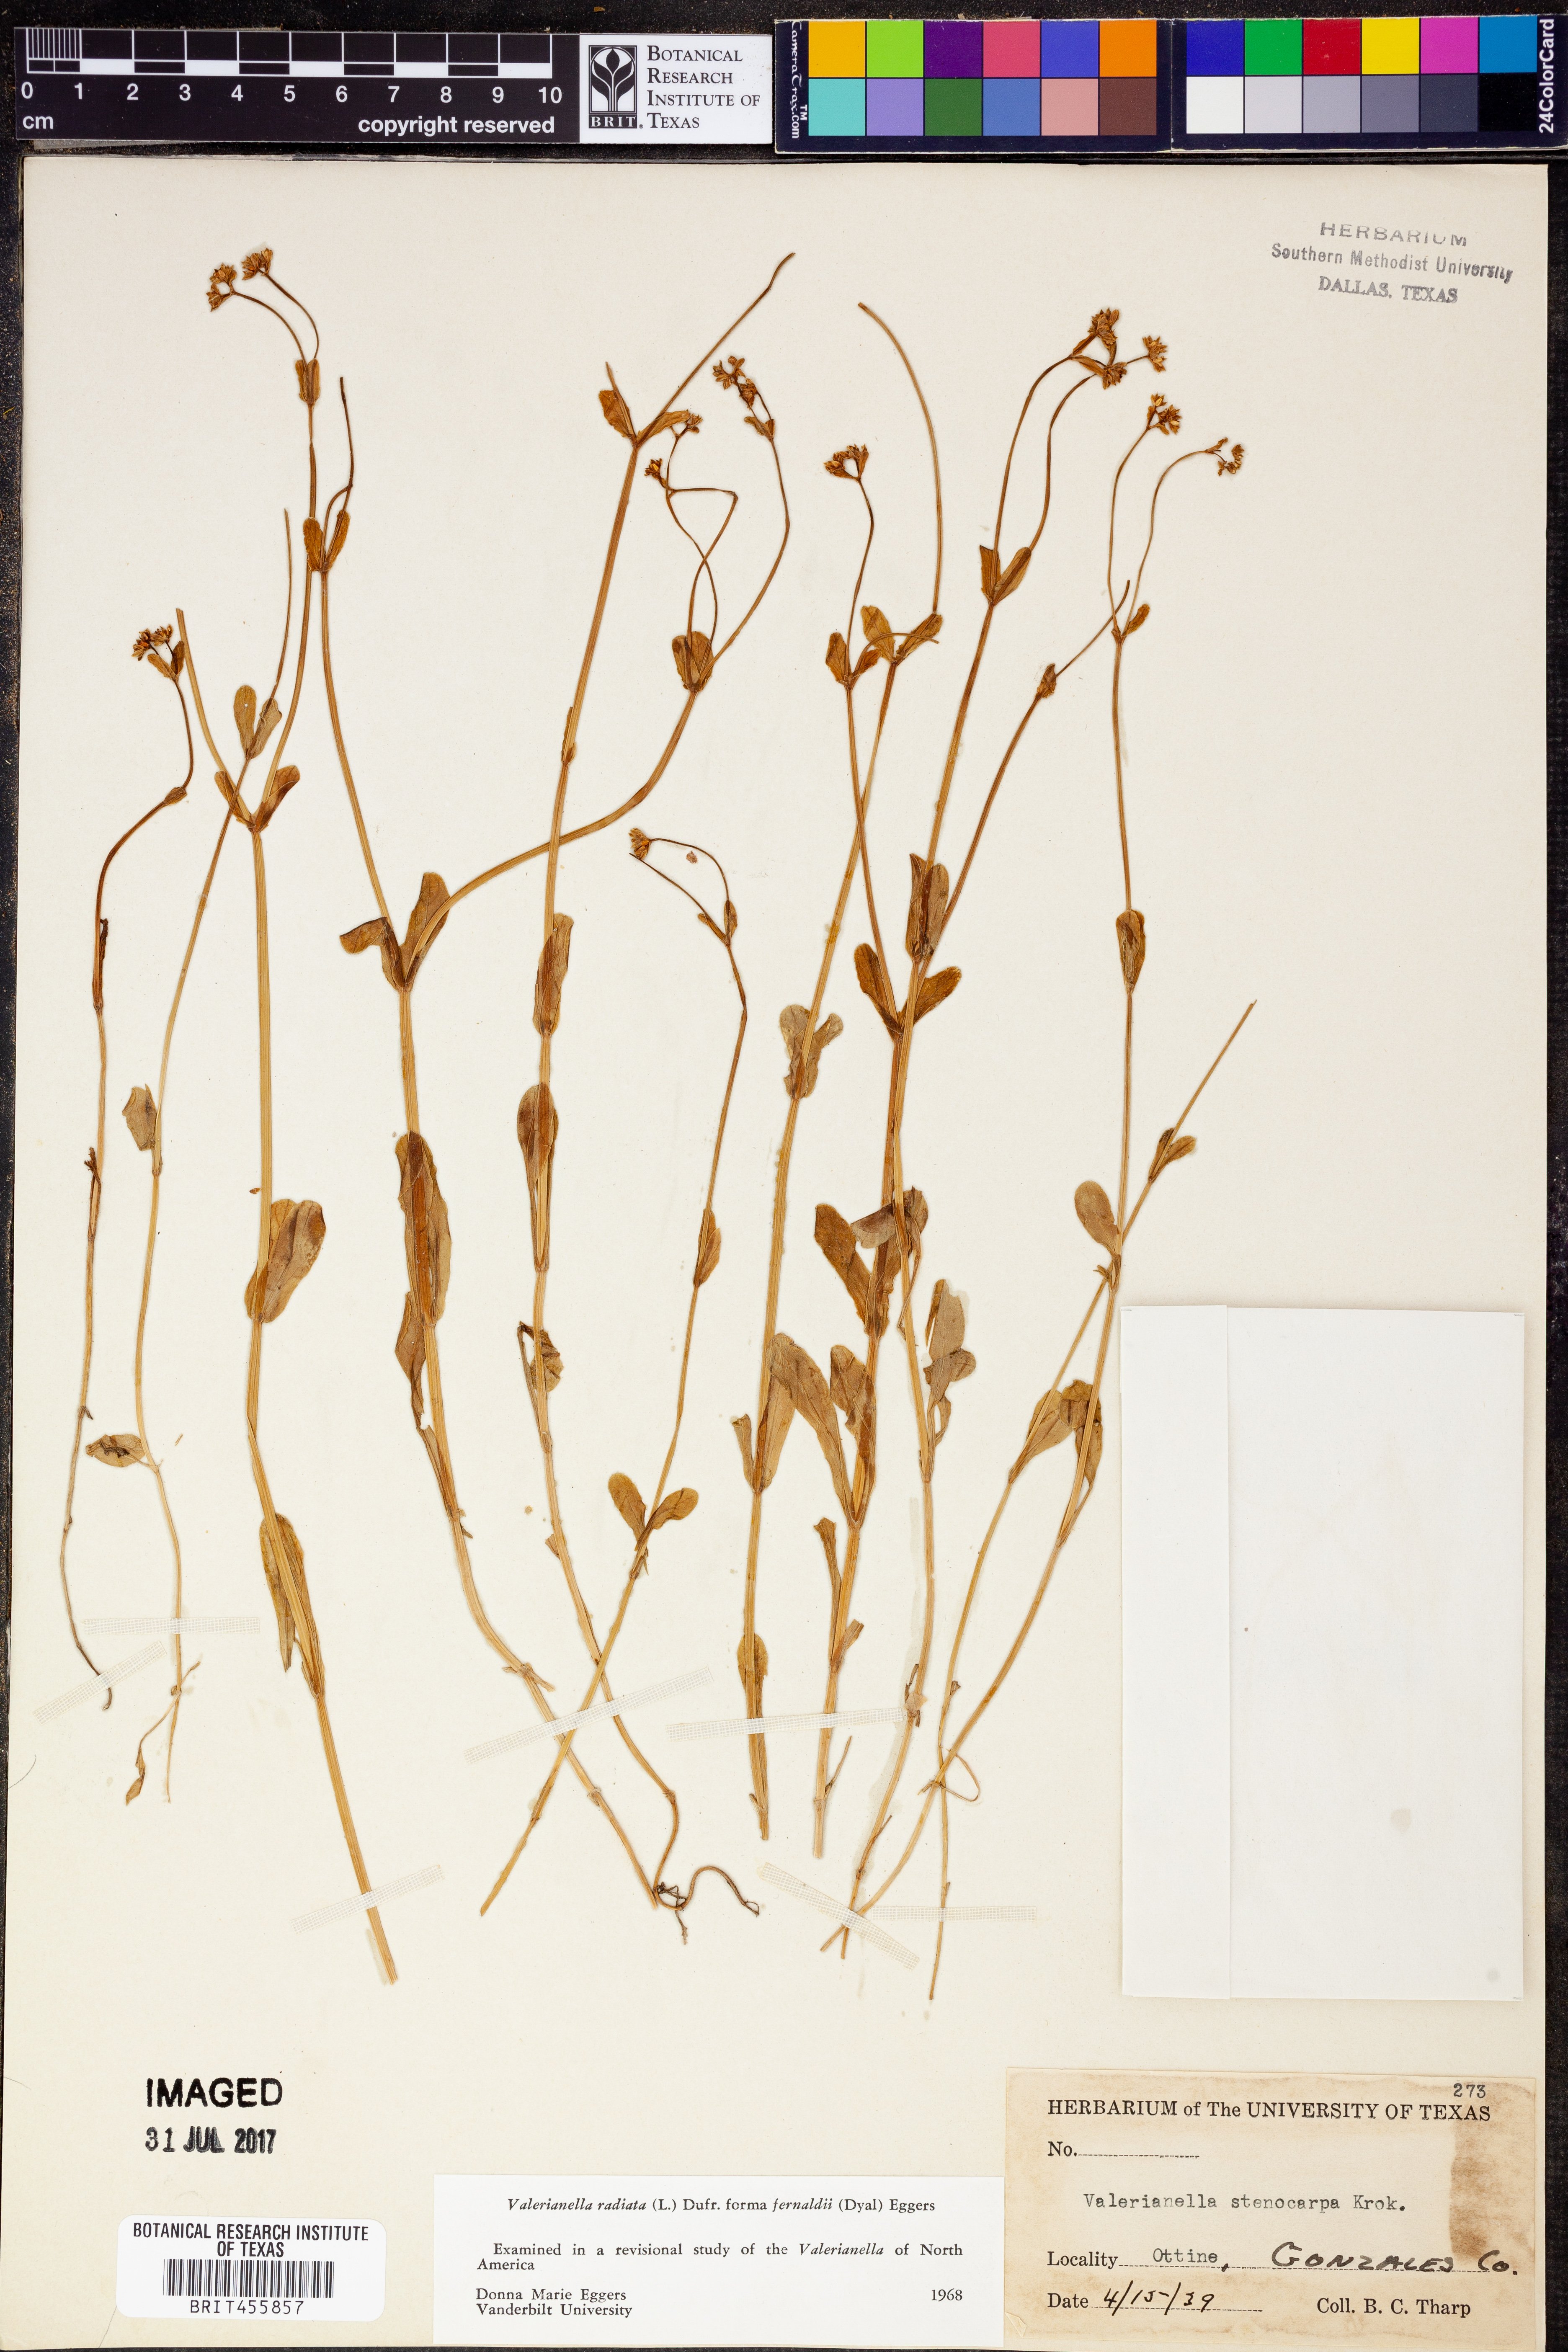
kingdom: Plantae
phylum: Tracheophyta
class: Magnoliopsida
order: Dipsacales
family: Caprifoliaceae
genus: Valerianella
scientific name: Valerianella radiata
